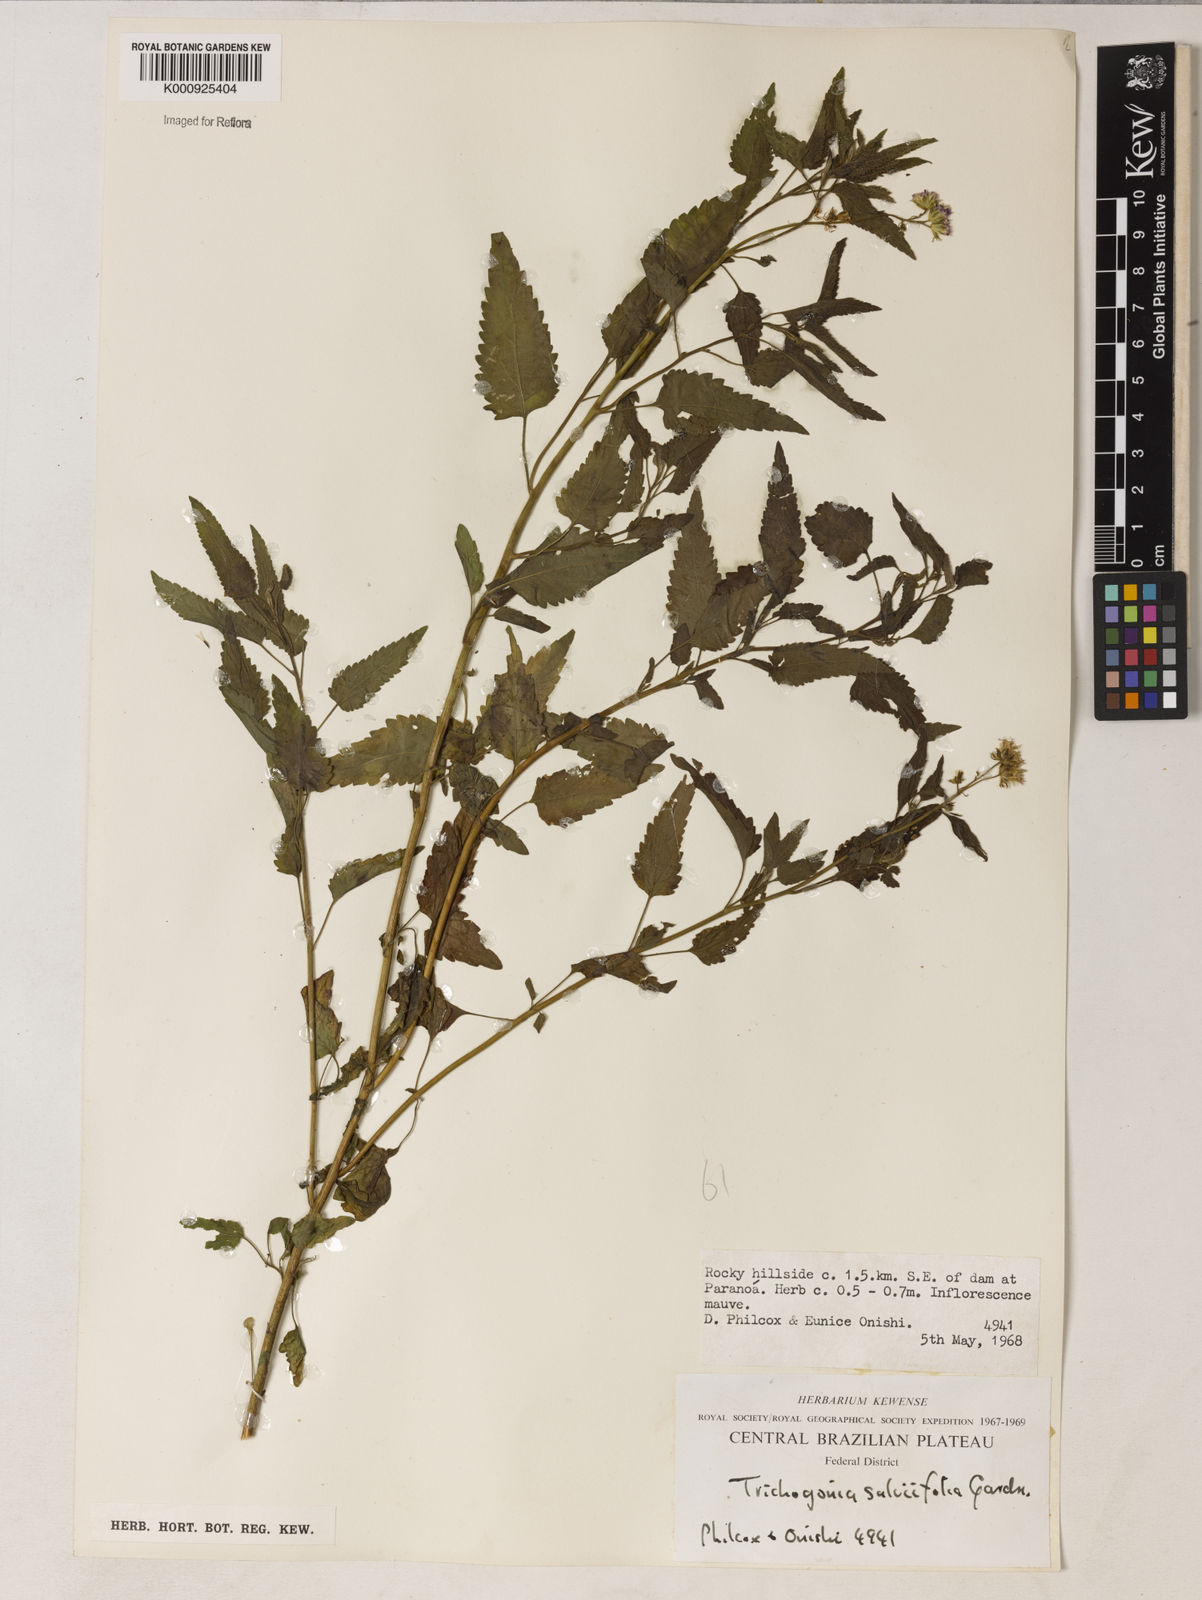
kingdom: Plantae
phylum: Tracheophyta
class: Magnoliopsida
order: Asterales
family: Asteraceae
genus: Trichogonia
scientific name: Trichogonia
